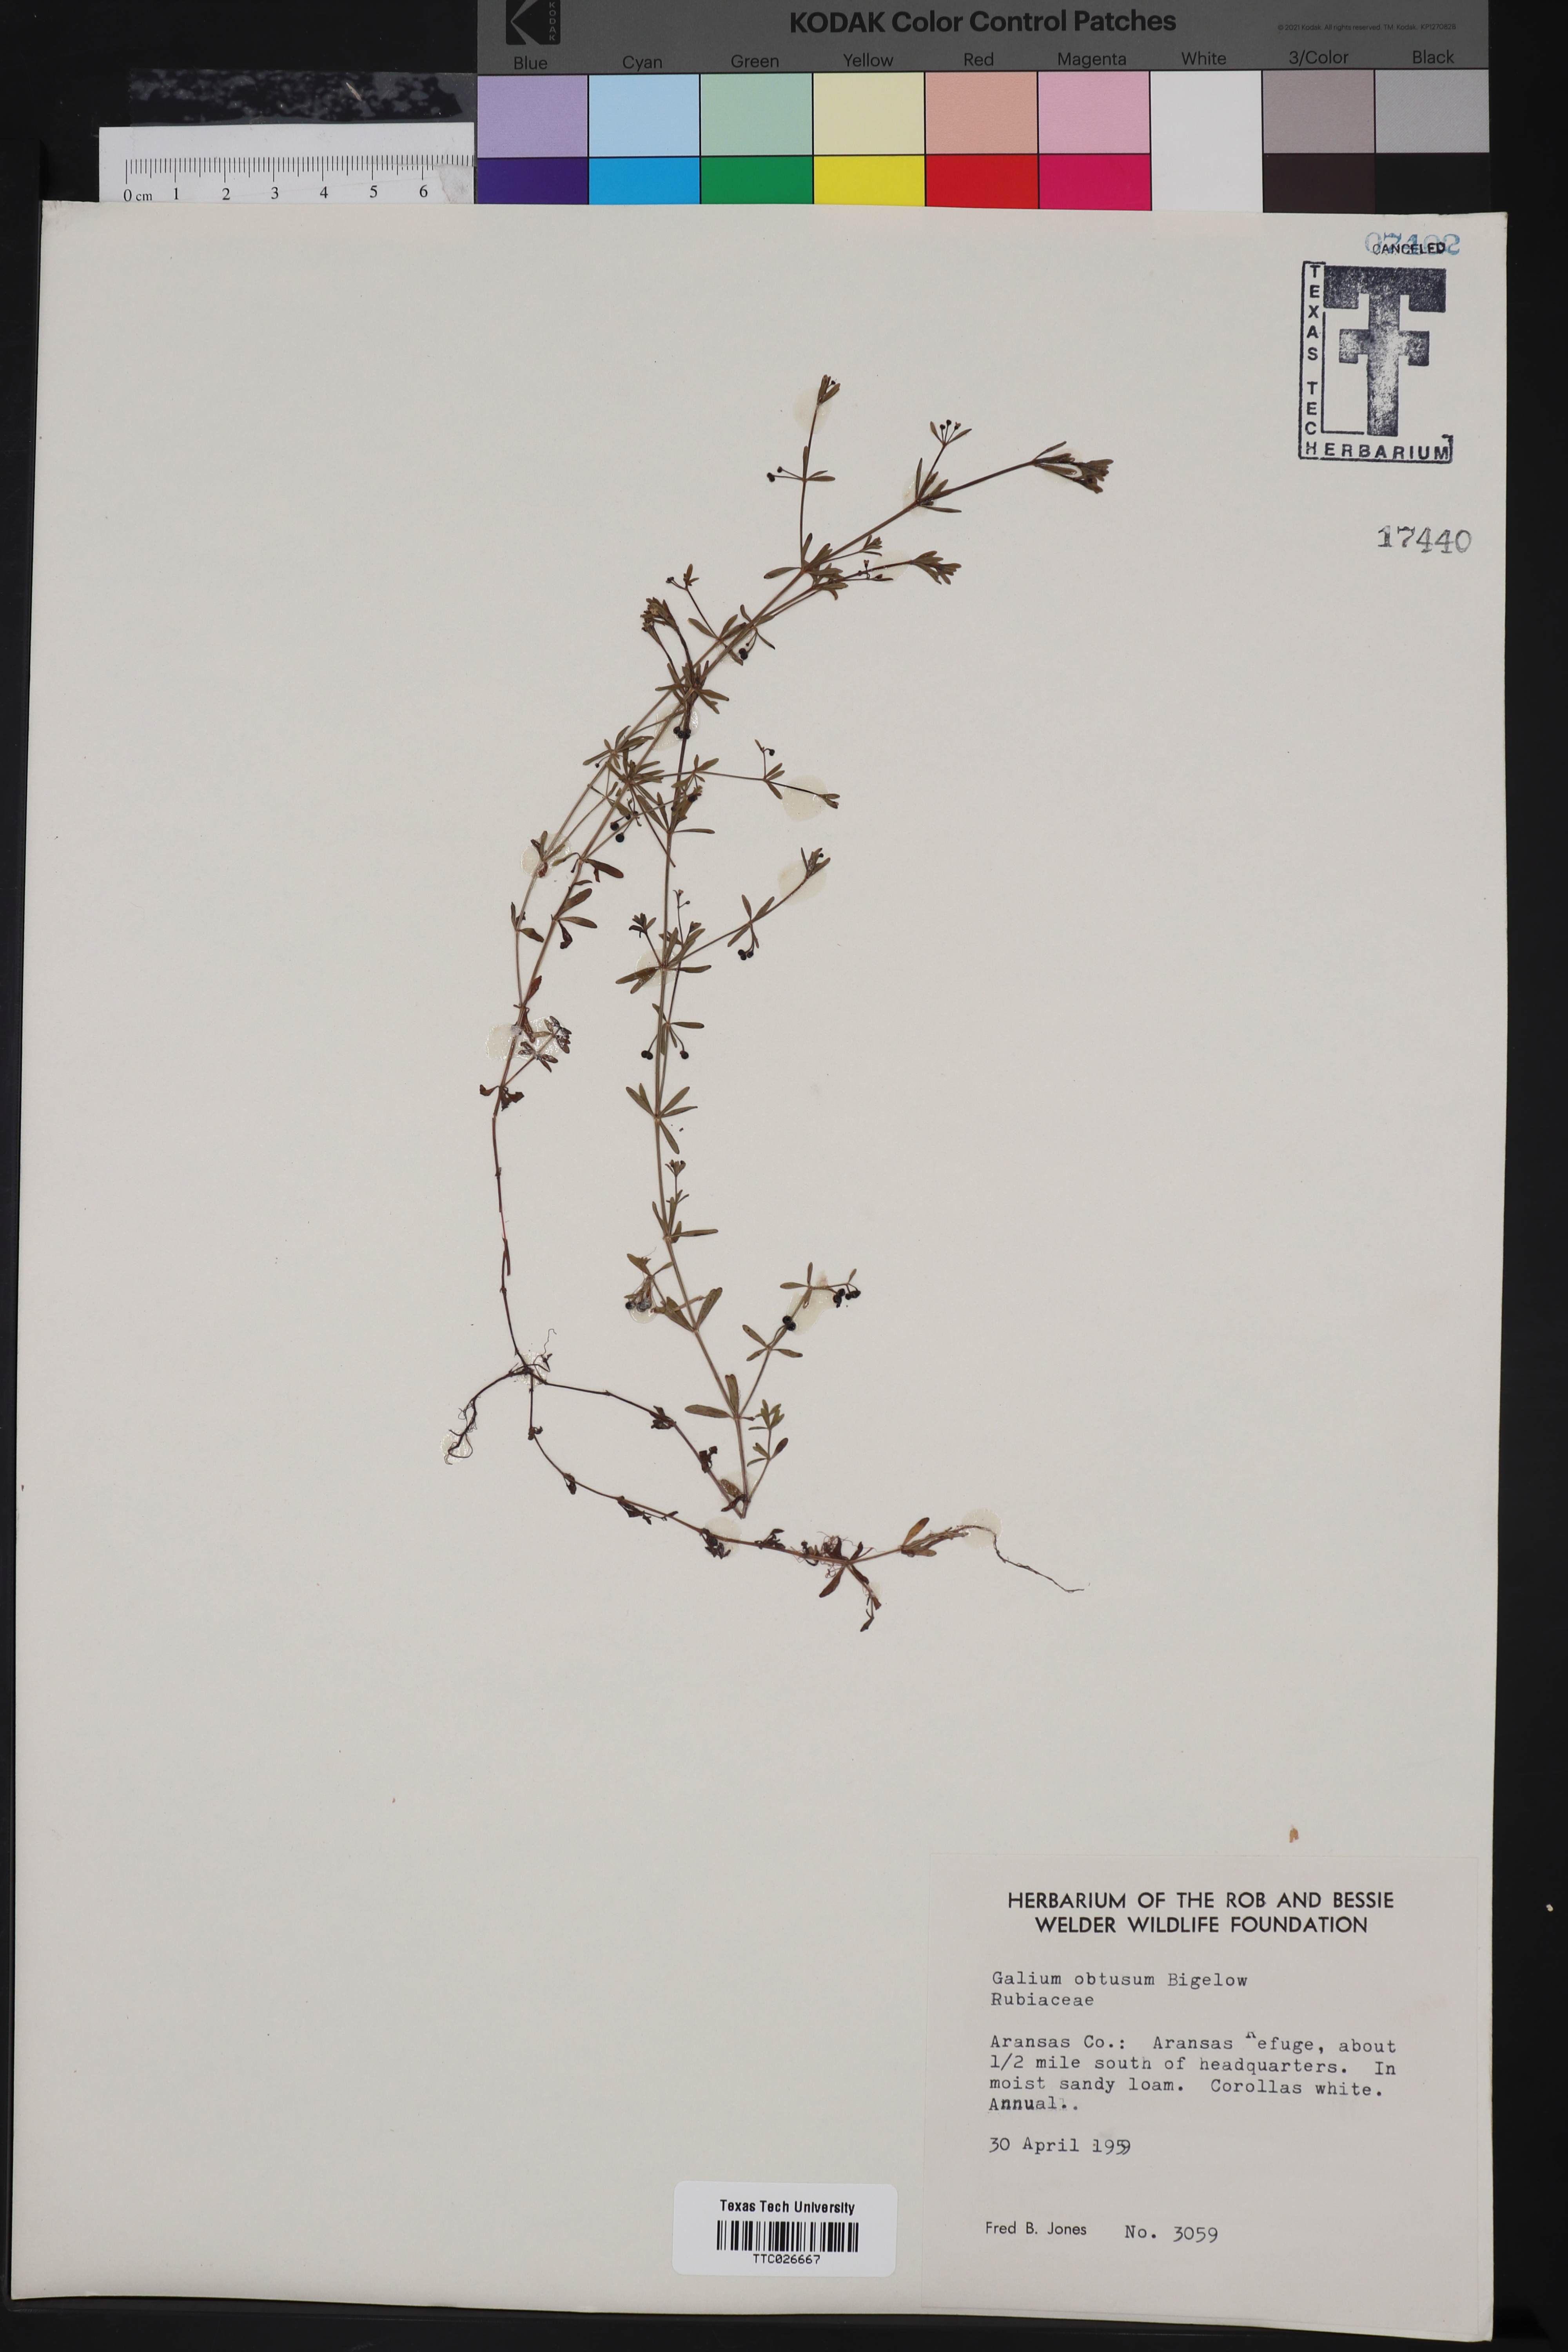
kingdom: Plantae
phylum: Tracheophyta
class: Magnoliopsida
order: Gentianales
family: Rubiaceae
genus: Galium
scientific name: Galium obtusum
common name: Blunt-leaved bedstraw
